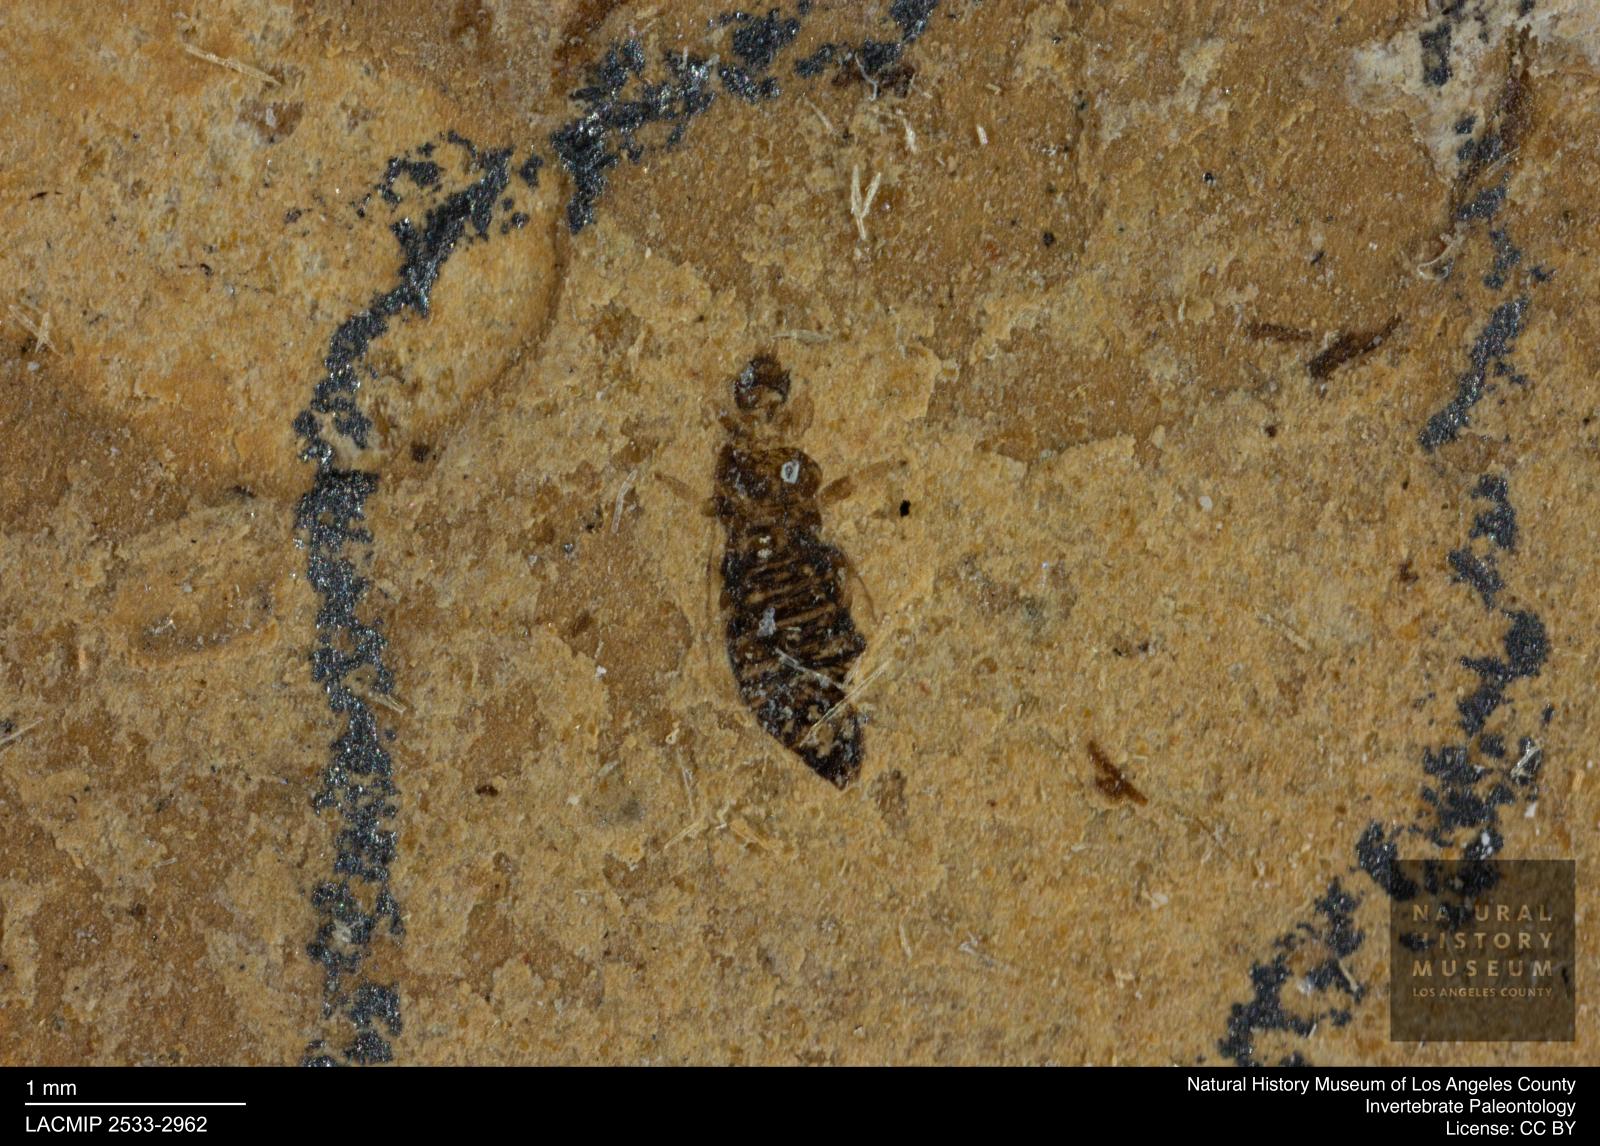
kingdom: Animalia
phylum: Arthropoda
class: Insecta
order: Thysanoptera
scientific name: Thysanoptera
